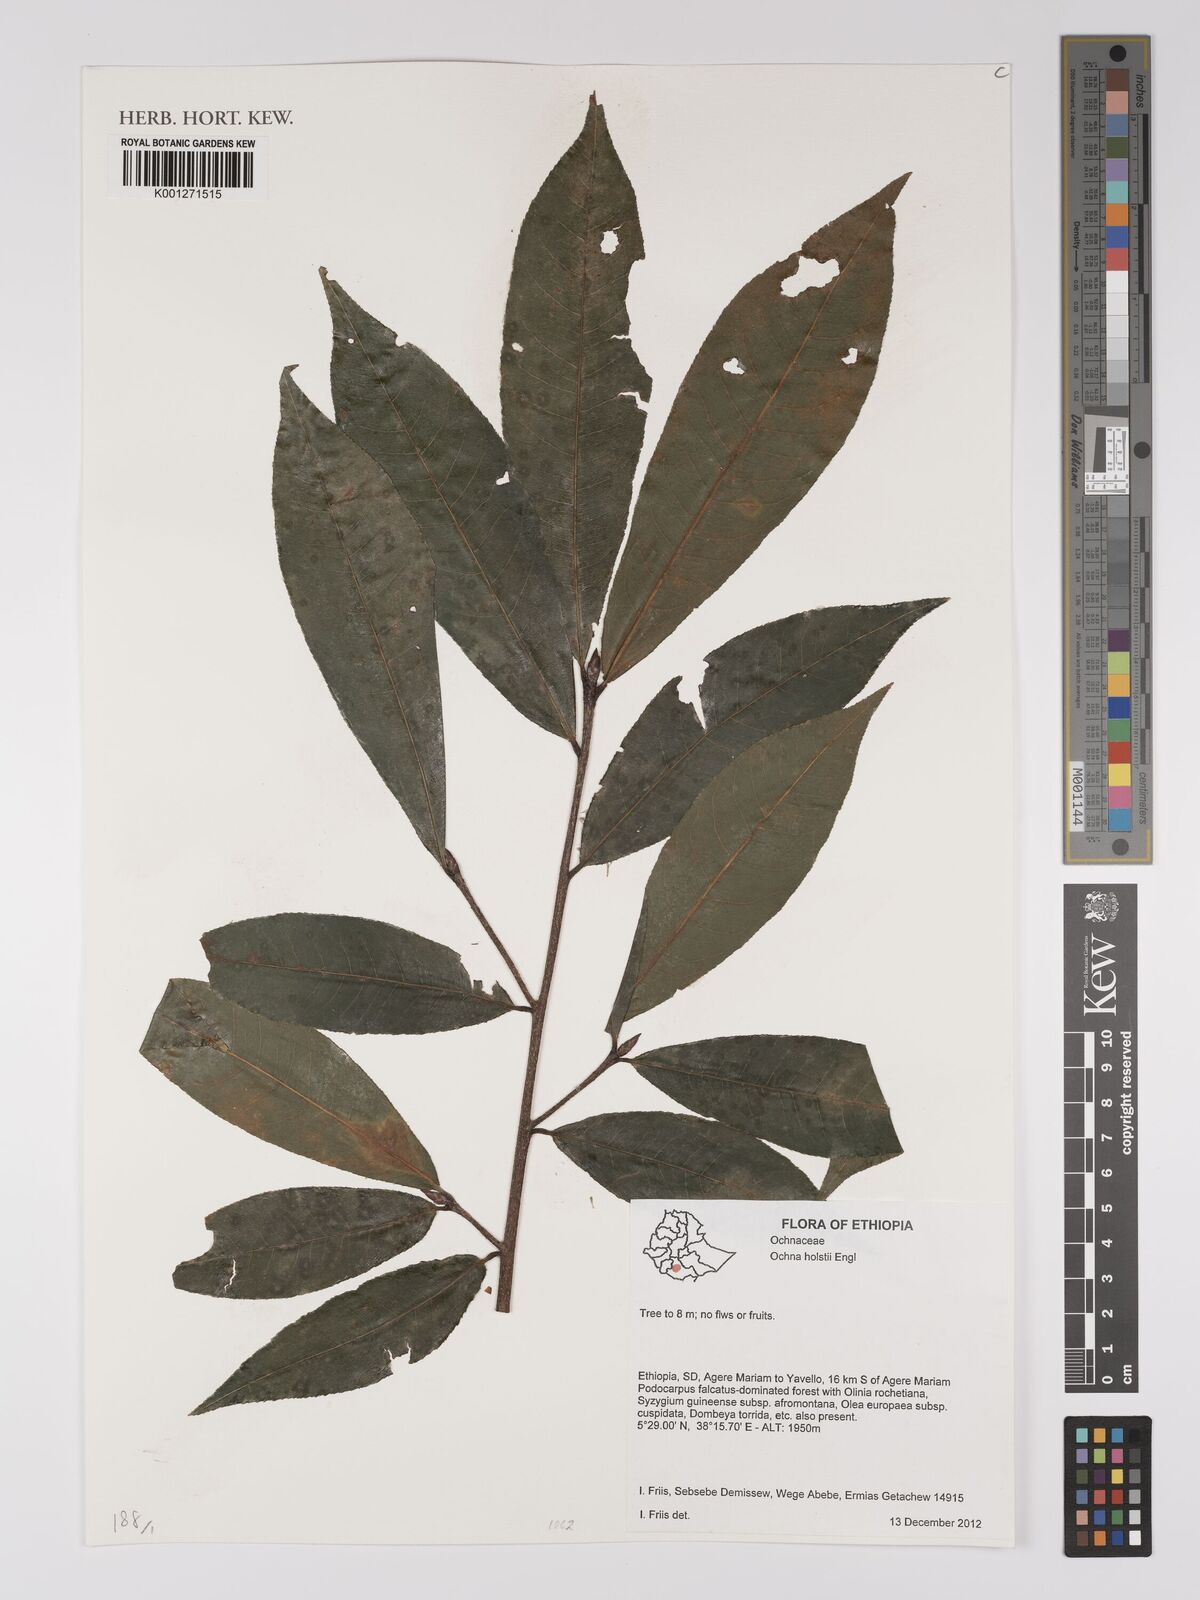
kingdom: Plantae
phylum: Tracheophyta
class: Magnoliopsida
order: Malpighiales
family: Ochnaceae
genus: Ochna
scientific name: Ochna holstii
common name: Red ironwood
